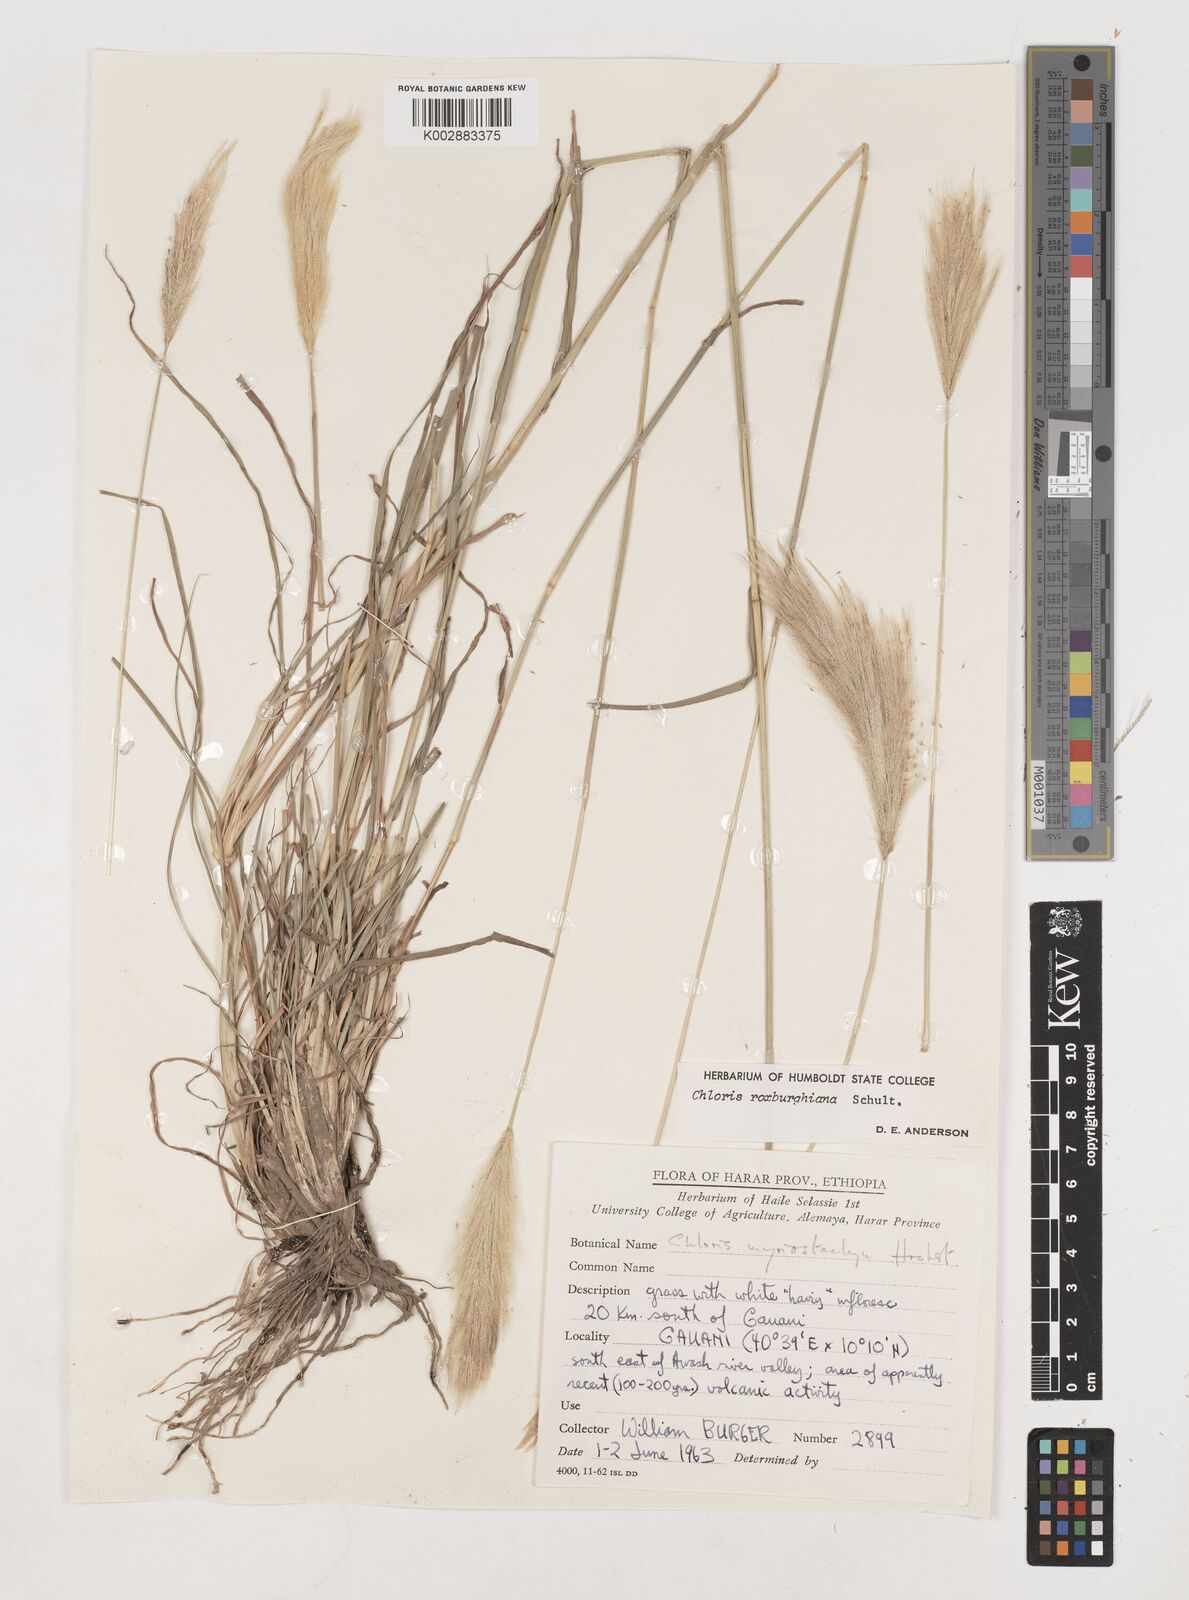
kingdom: Plantae
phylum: Tracheophyta
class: Liliopsida
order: Poales
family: Poaceae
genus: Tetrapogon
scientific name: Tetrapogon roxburghiana
